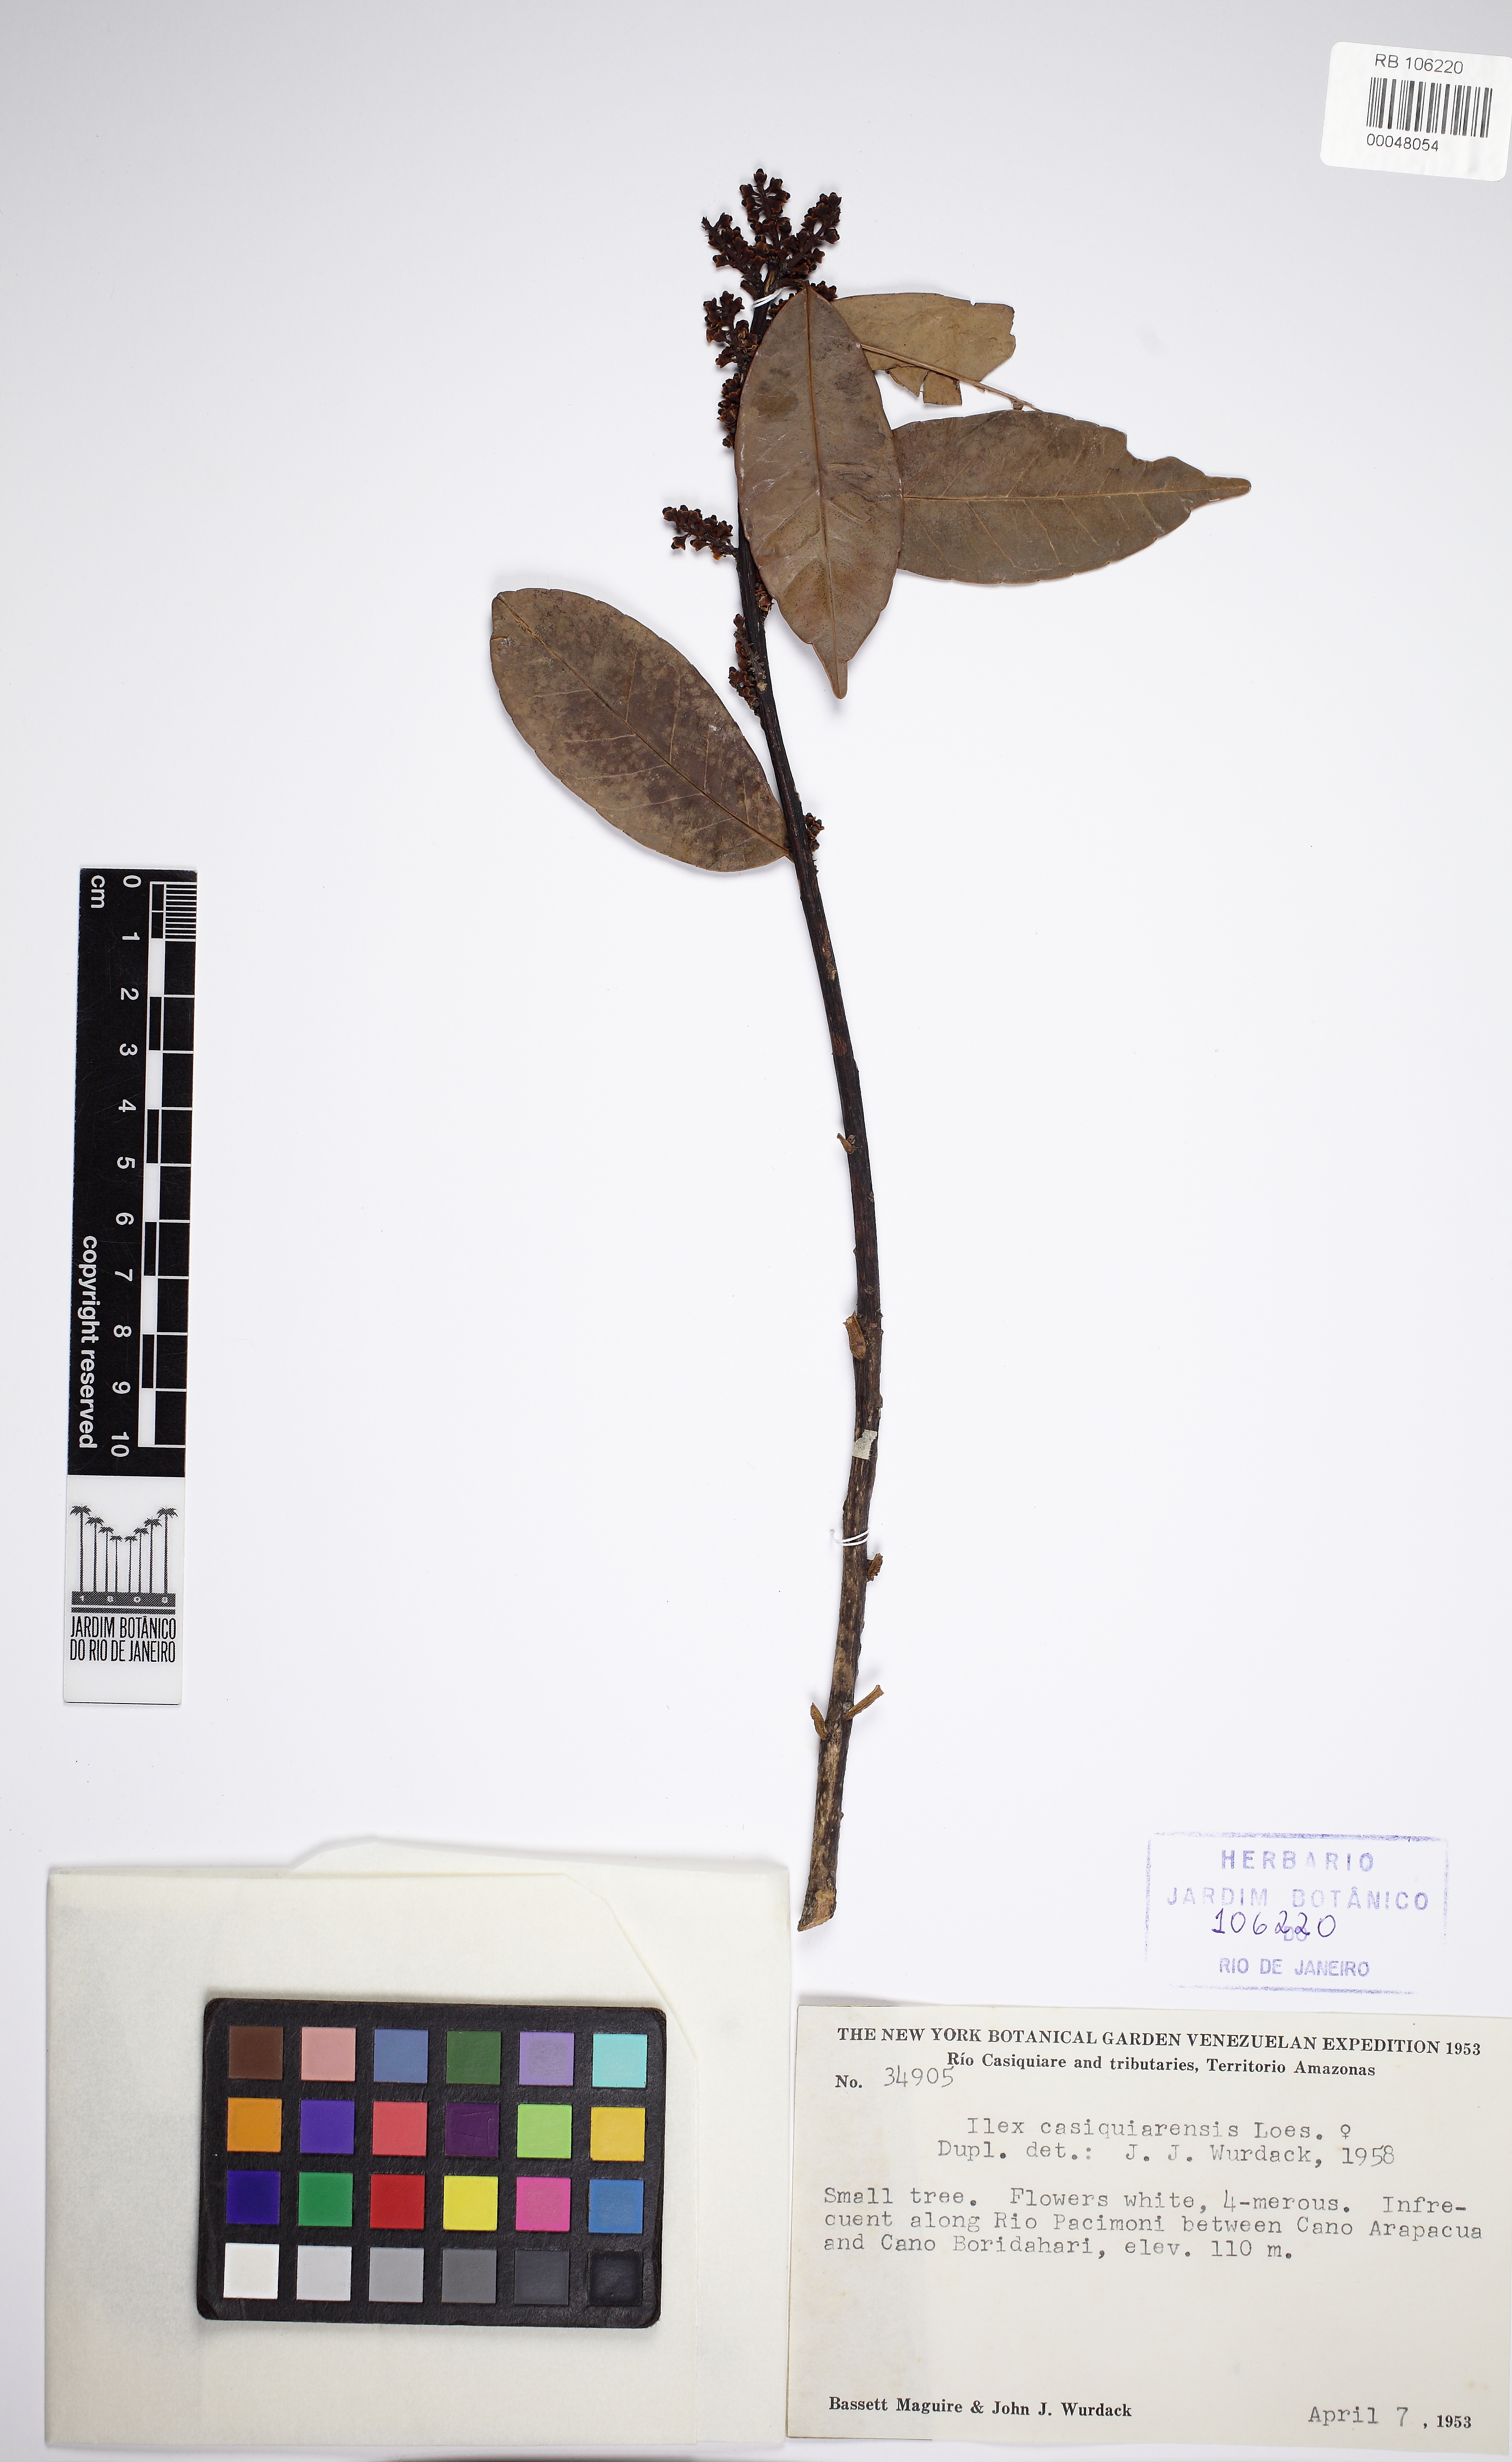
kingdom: Plantae
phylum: Tracheophyta
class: Magnoliopsida
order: Aquifoliales
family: Aquifoliaceae
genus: Ilex
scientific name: Ilex casiquiarensis
